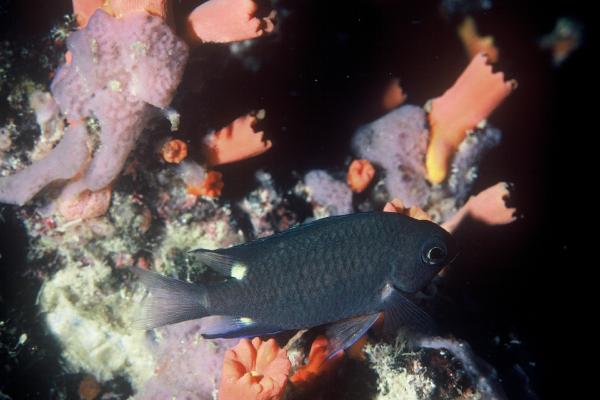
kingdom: Animalia
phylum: Chordata
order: Perciformes
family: Pomacentridae
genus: Chromis
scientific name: Chromis elerae
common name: Twin-spot chromis
